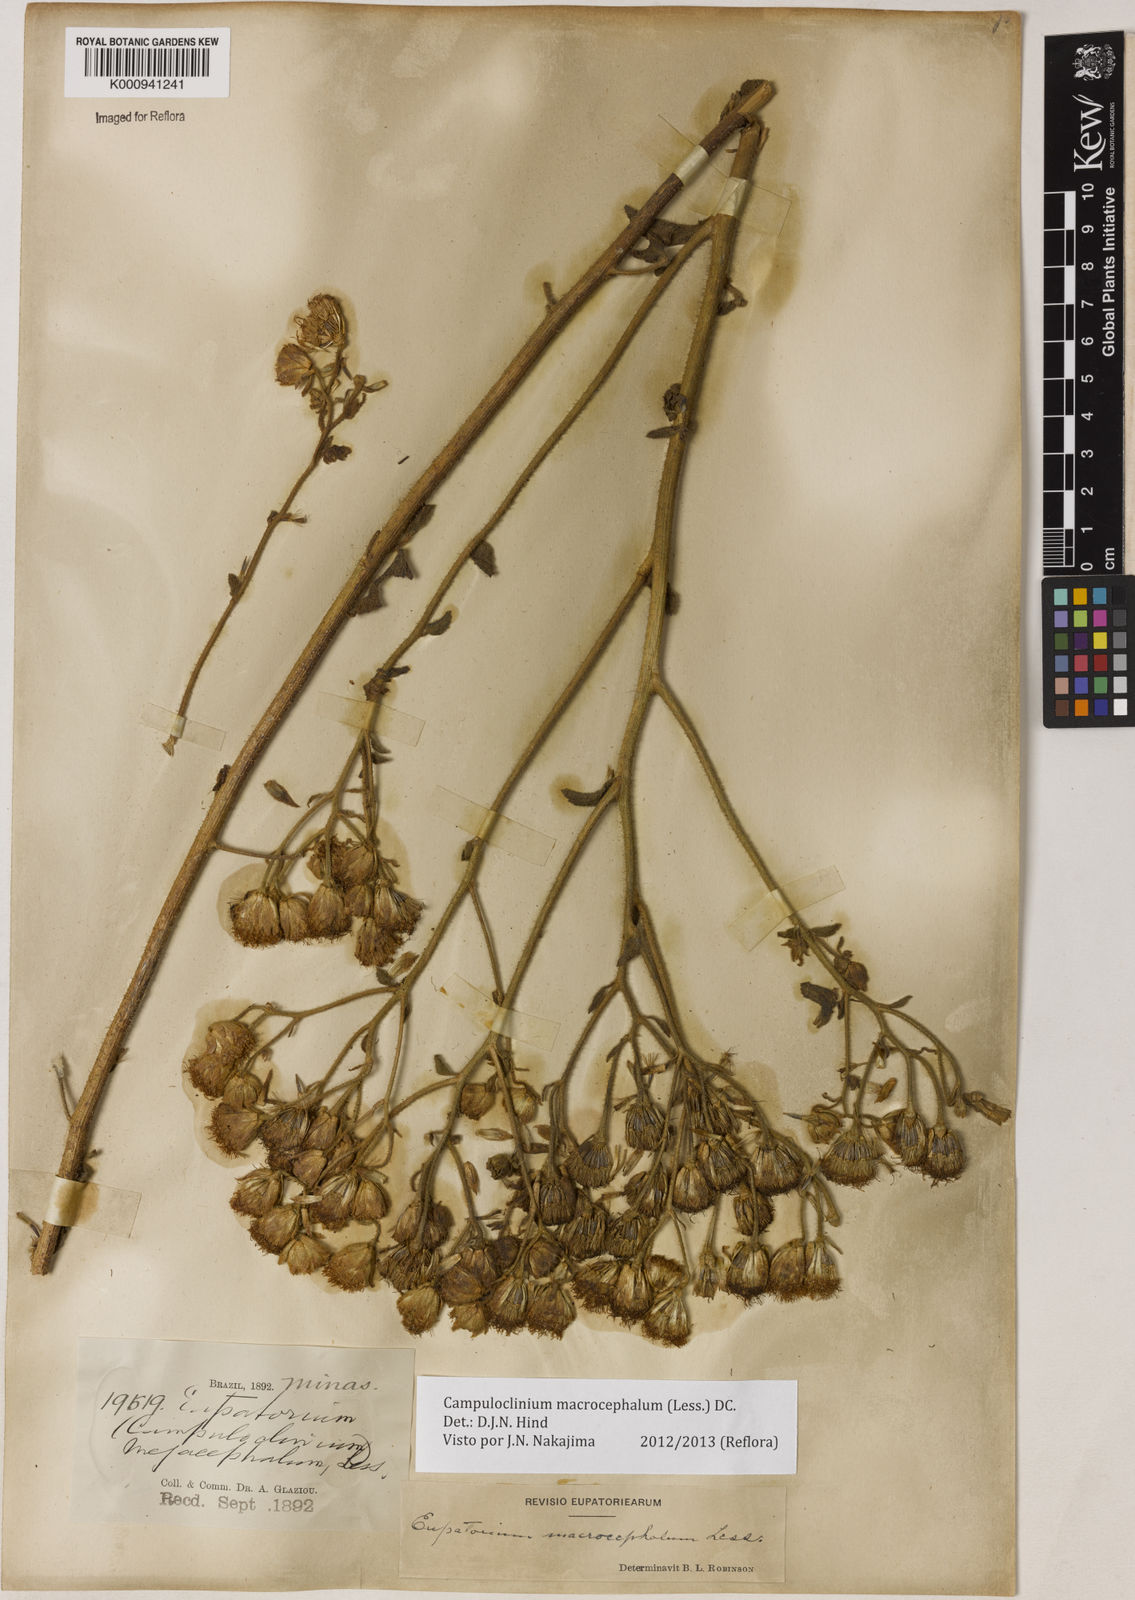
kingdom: Plantae
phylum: Tracheophyta
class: Magnoliopsida
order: Asterales
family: Asteraceae
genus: Campuloclinium
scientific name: Campuloclinium macrocephalum
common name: Pompomweed
